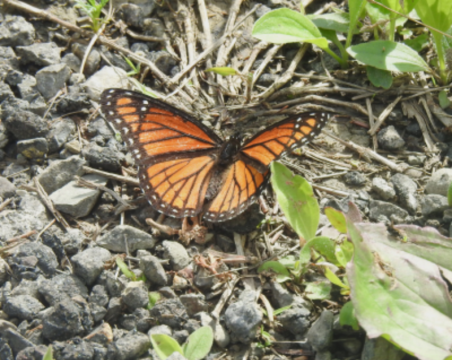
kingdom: Animalia
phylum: Arthropoda
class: Insecta
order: Lepidoptera
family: Nymphalidae
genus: Limenitis
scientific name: Limenitis archippus
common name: Viceroy
